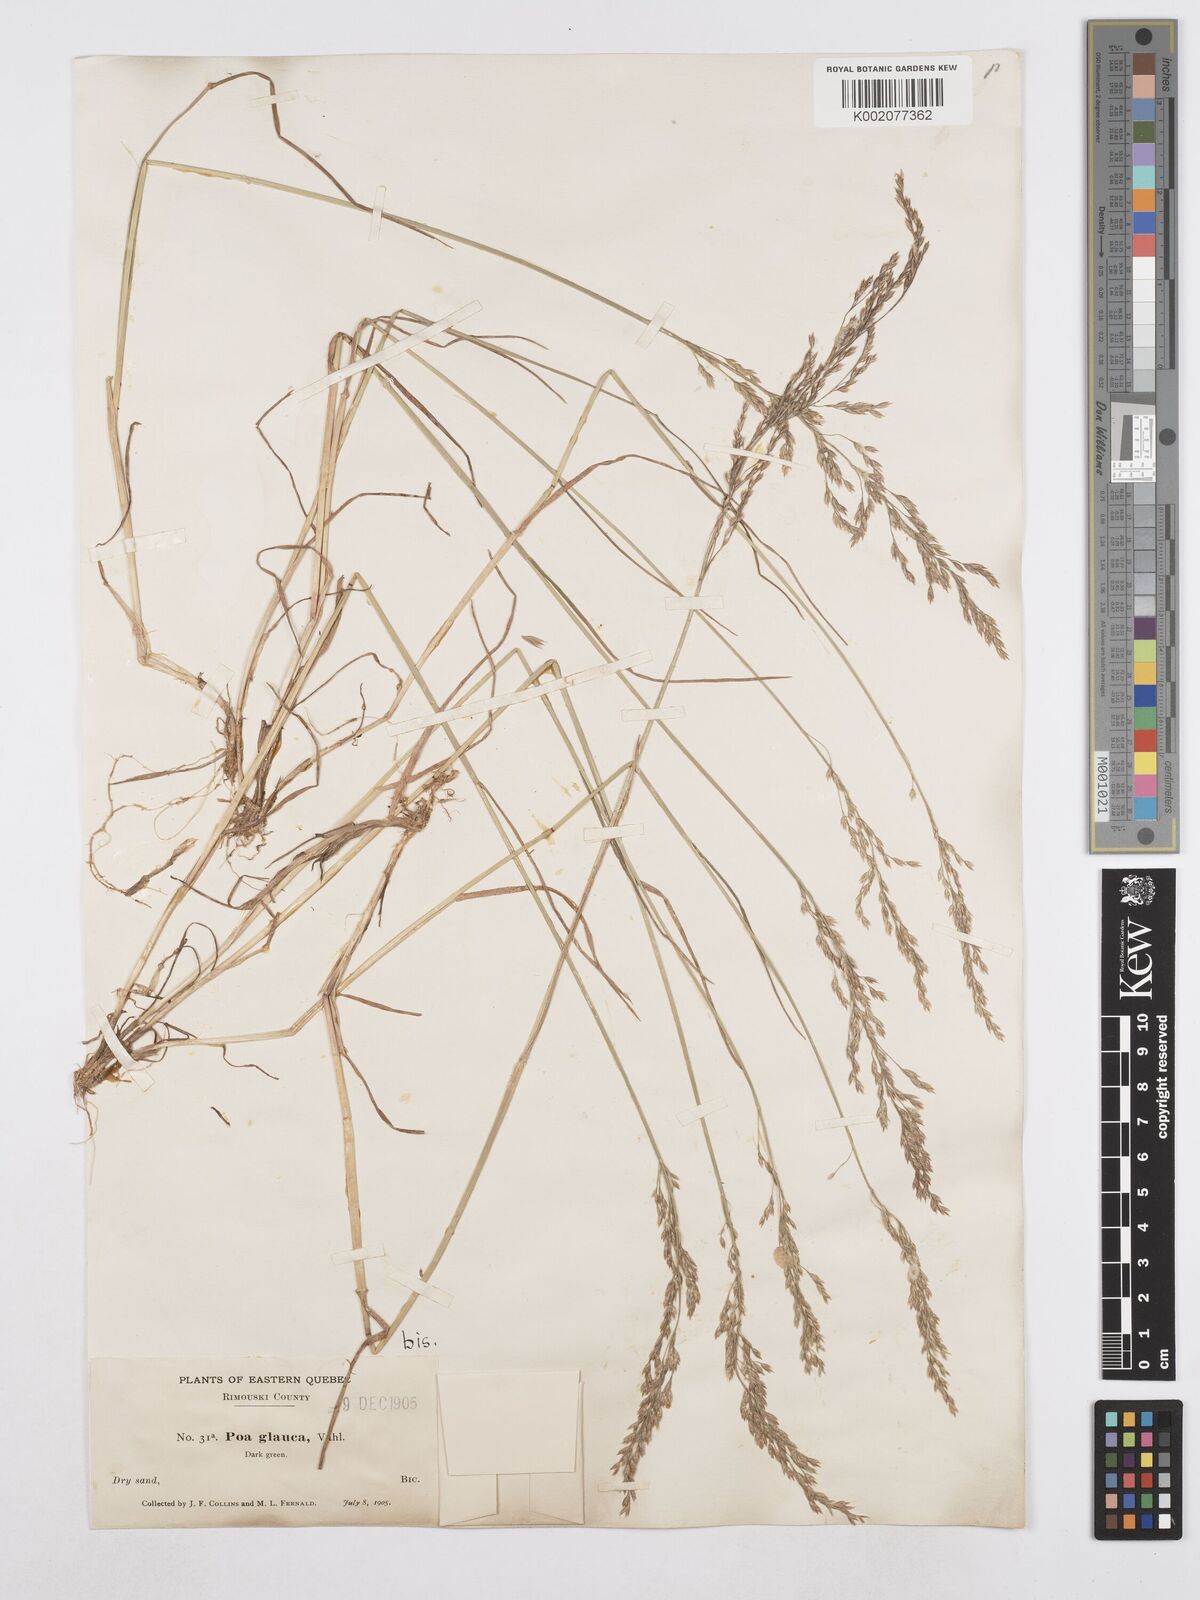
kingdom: Plantae
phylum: Tracheophyta
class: Liliopsida
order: Poales
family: Poaceae
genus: Poa
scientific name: Poa glauca
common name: Glaucous bluegrass
